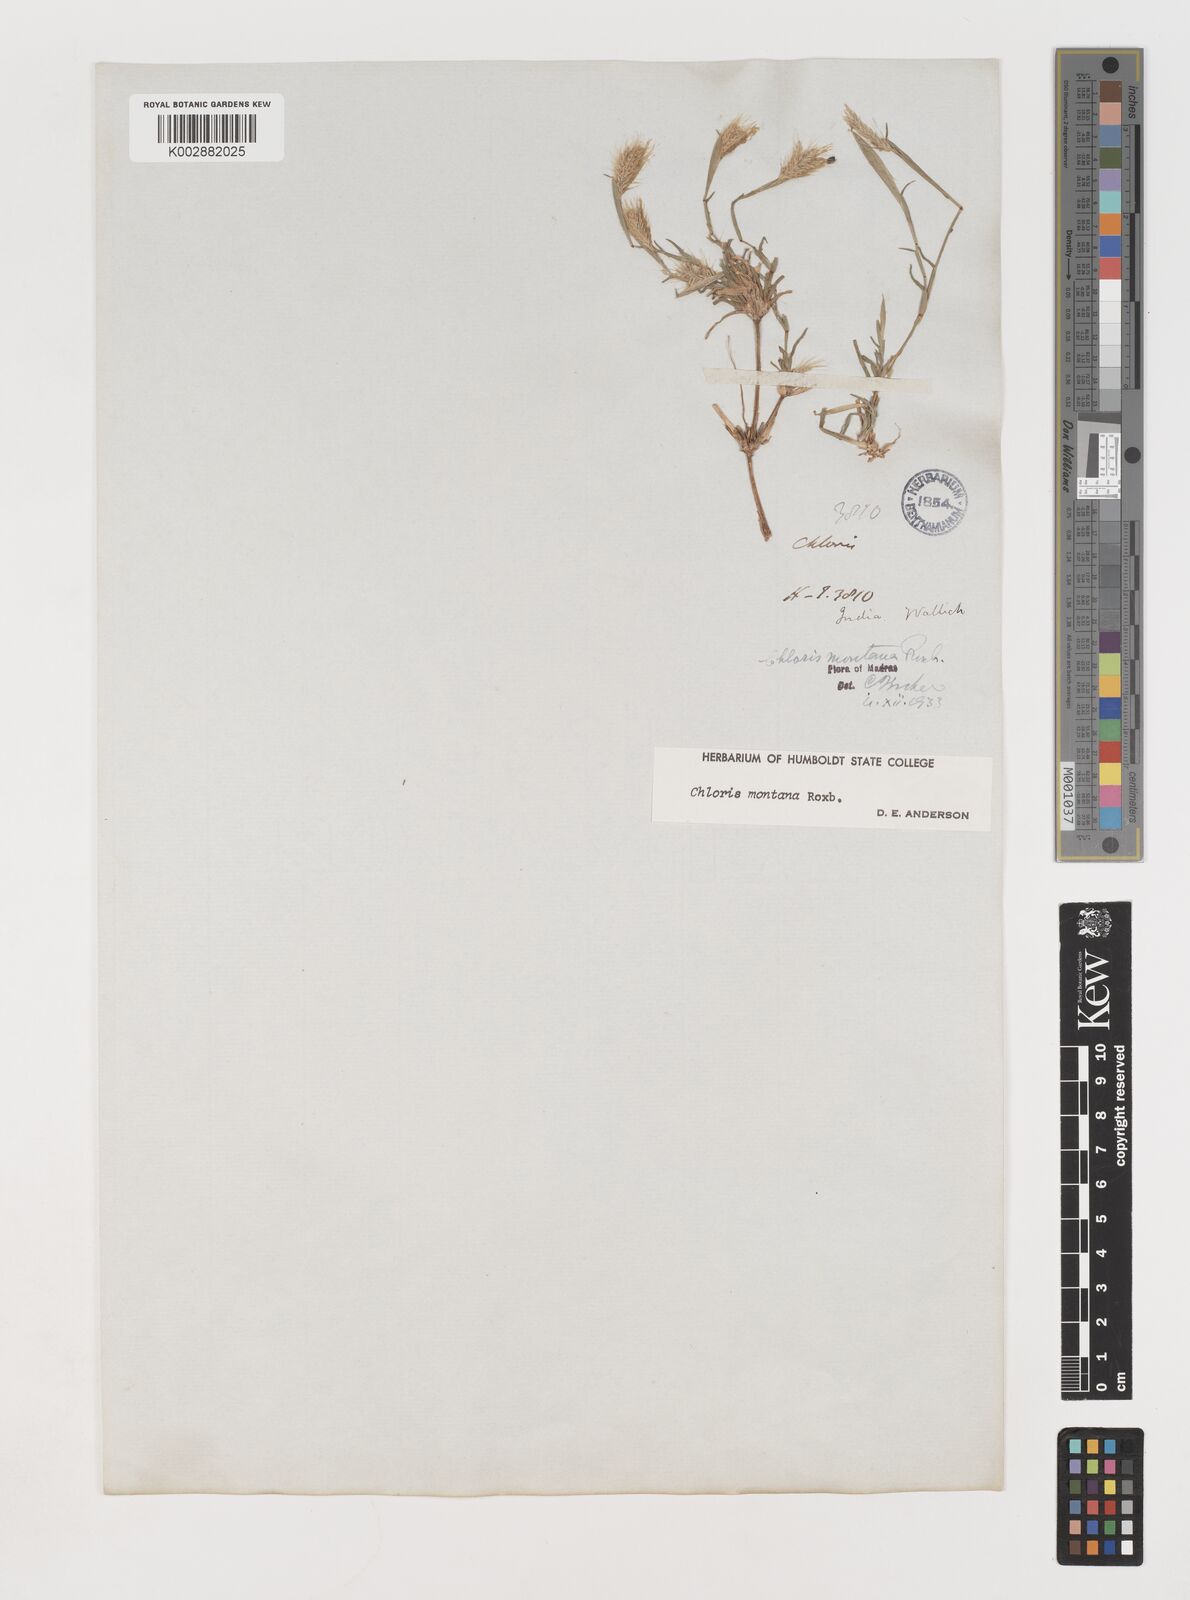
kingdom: Plantae
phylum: Tracheophyta
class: Liliopsida
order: Poales
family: Poaceae
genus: Chloris
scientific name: Chloris montana
